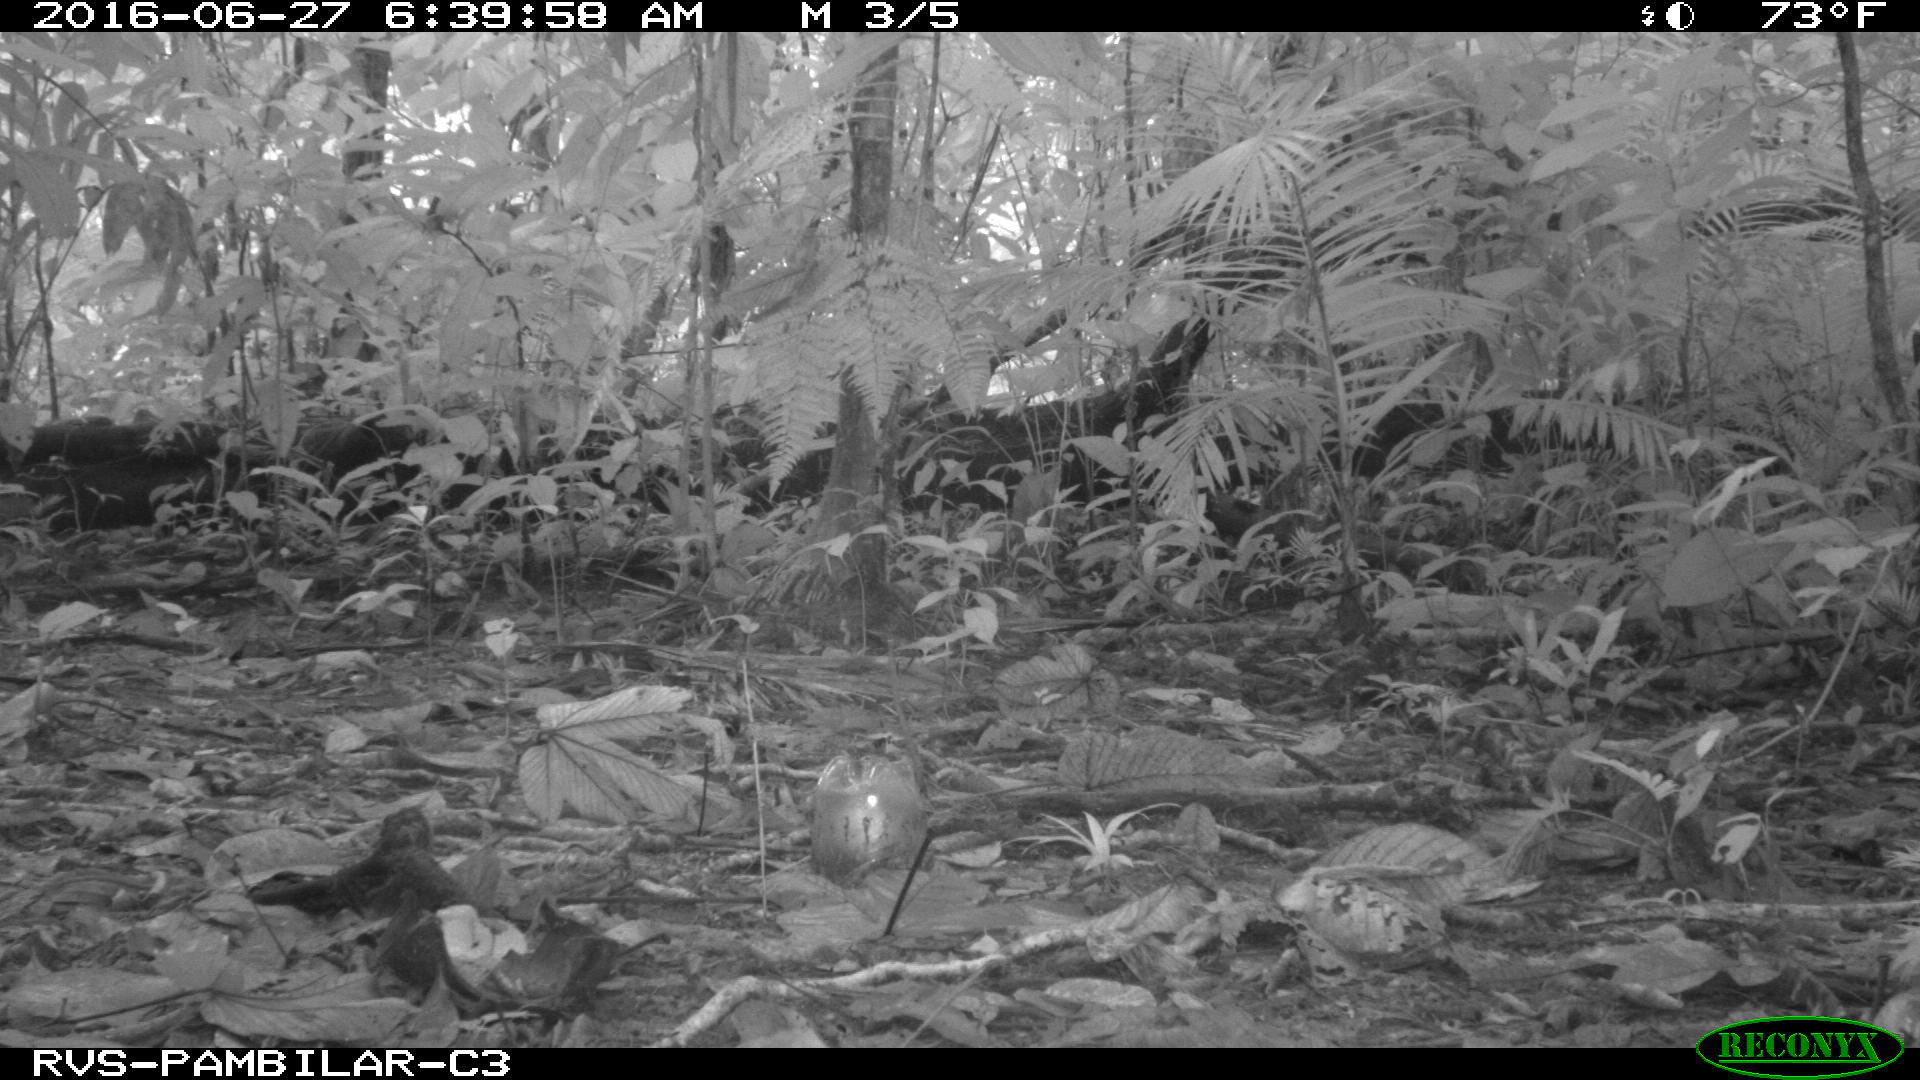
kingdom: Animalia
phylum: Chordata
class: Mammalia
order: Rodentia
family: Dasyproctidae
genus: Dasyprocta
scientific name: Dasyprocta punctata
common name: Central american agouti
